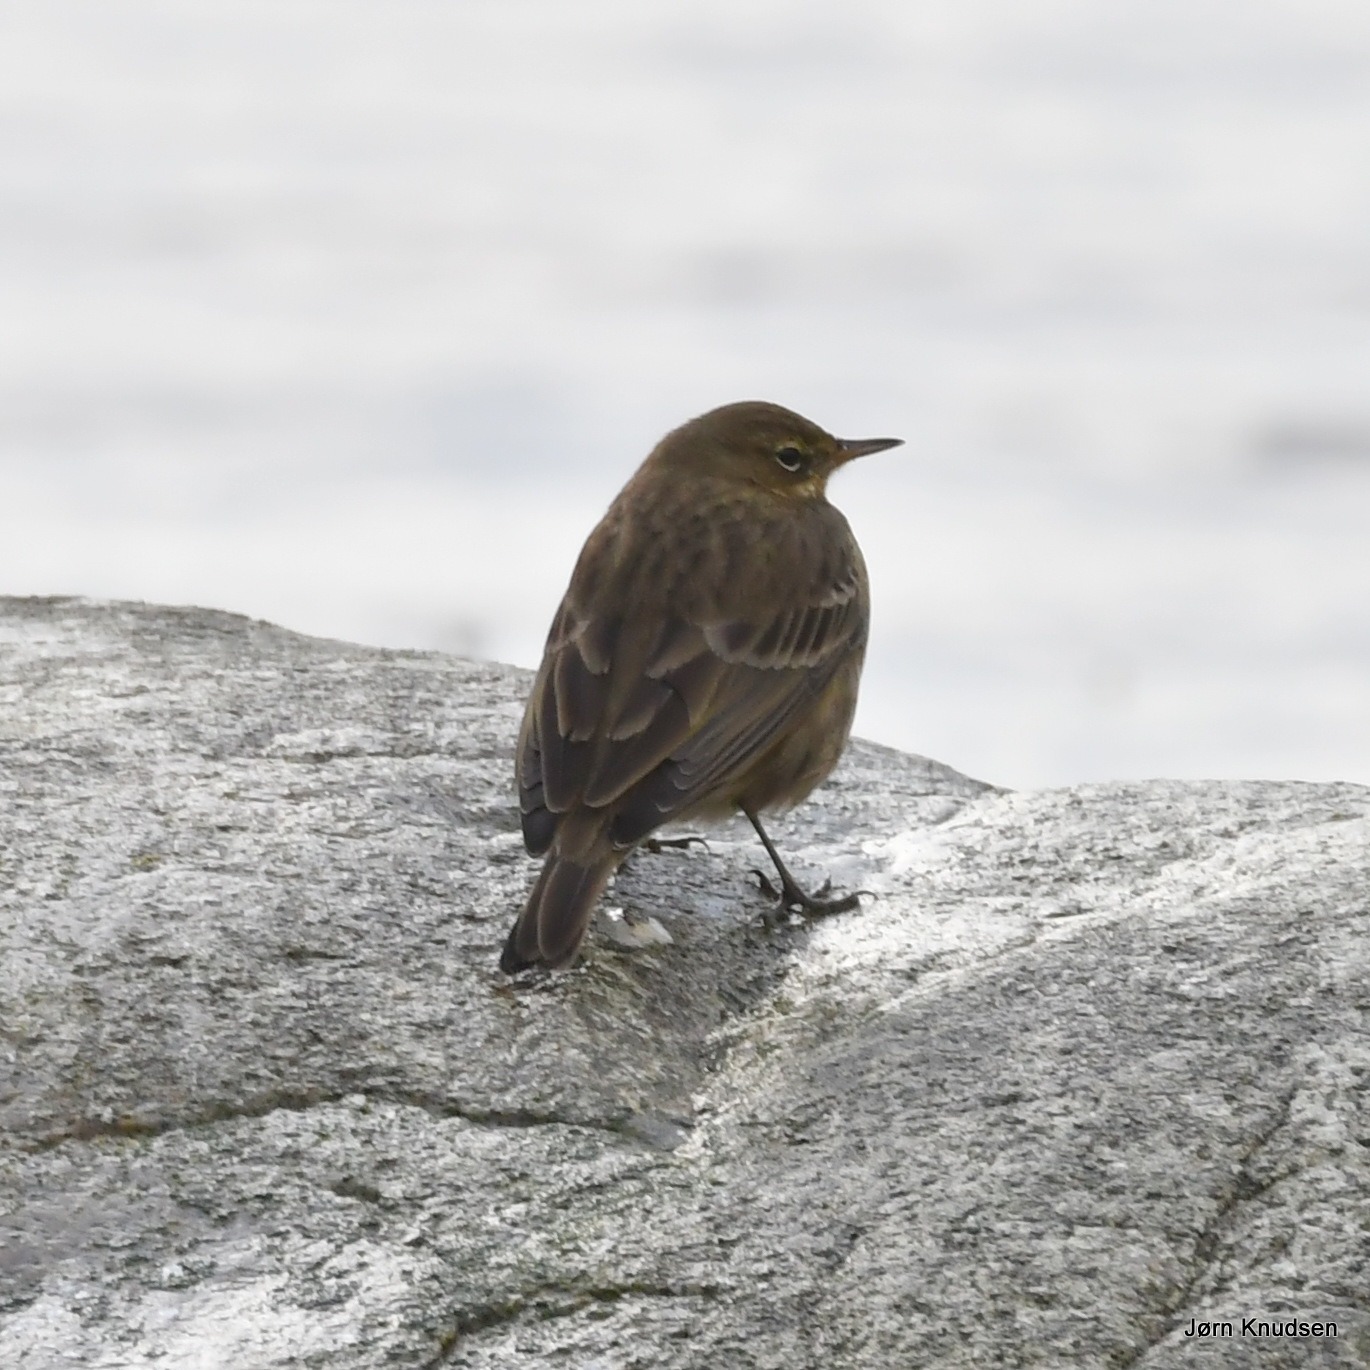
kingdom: Animalia
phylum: Chordata
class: Aves
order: Passeriformes
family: Motacillidae
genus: Anthus
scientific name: Anthus petrosus
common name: Skærpiber
